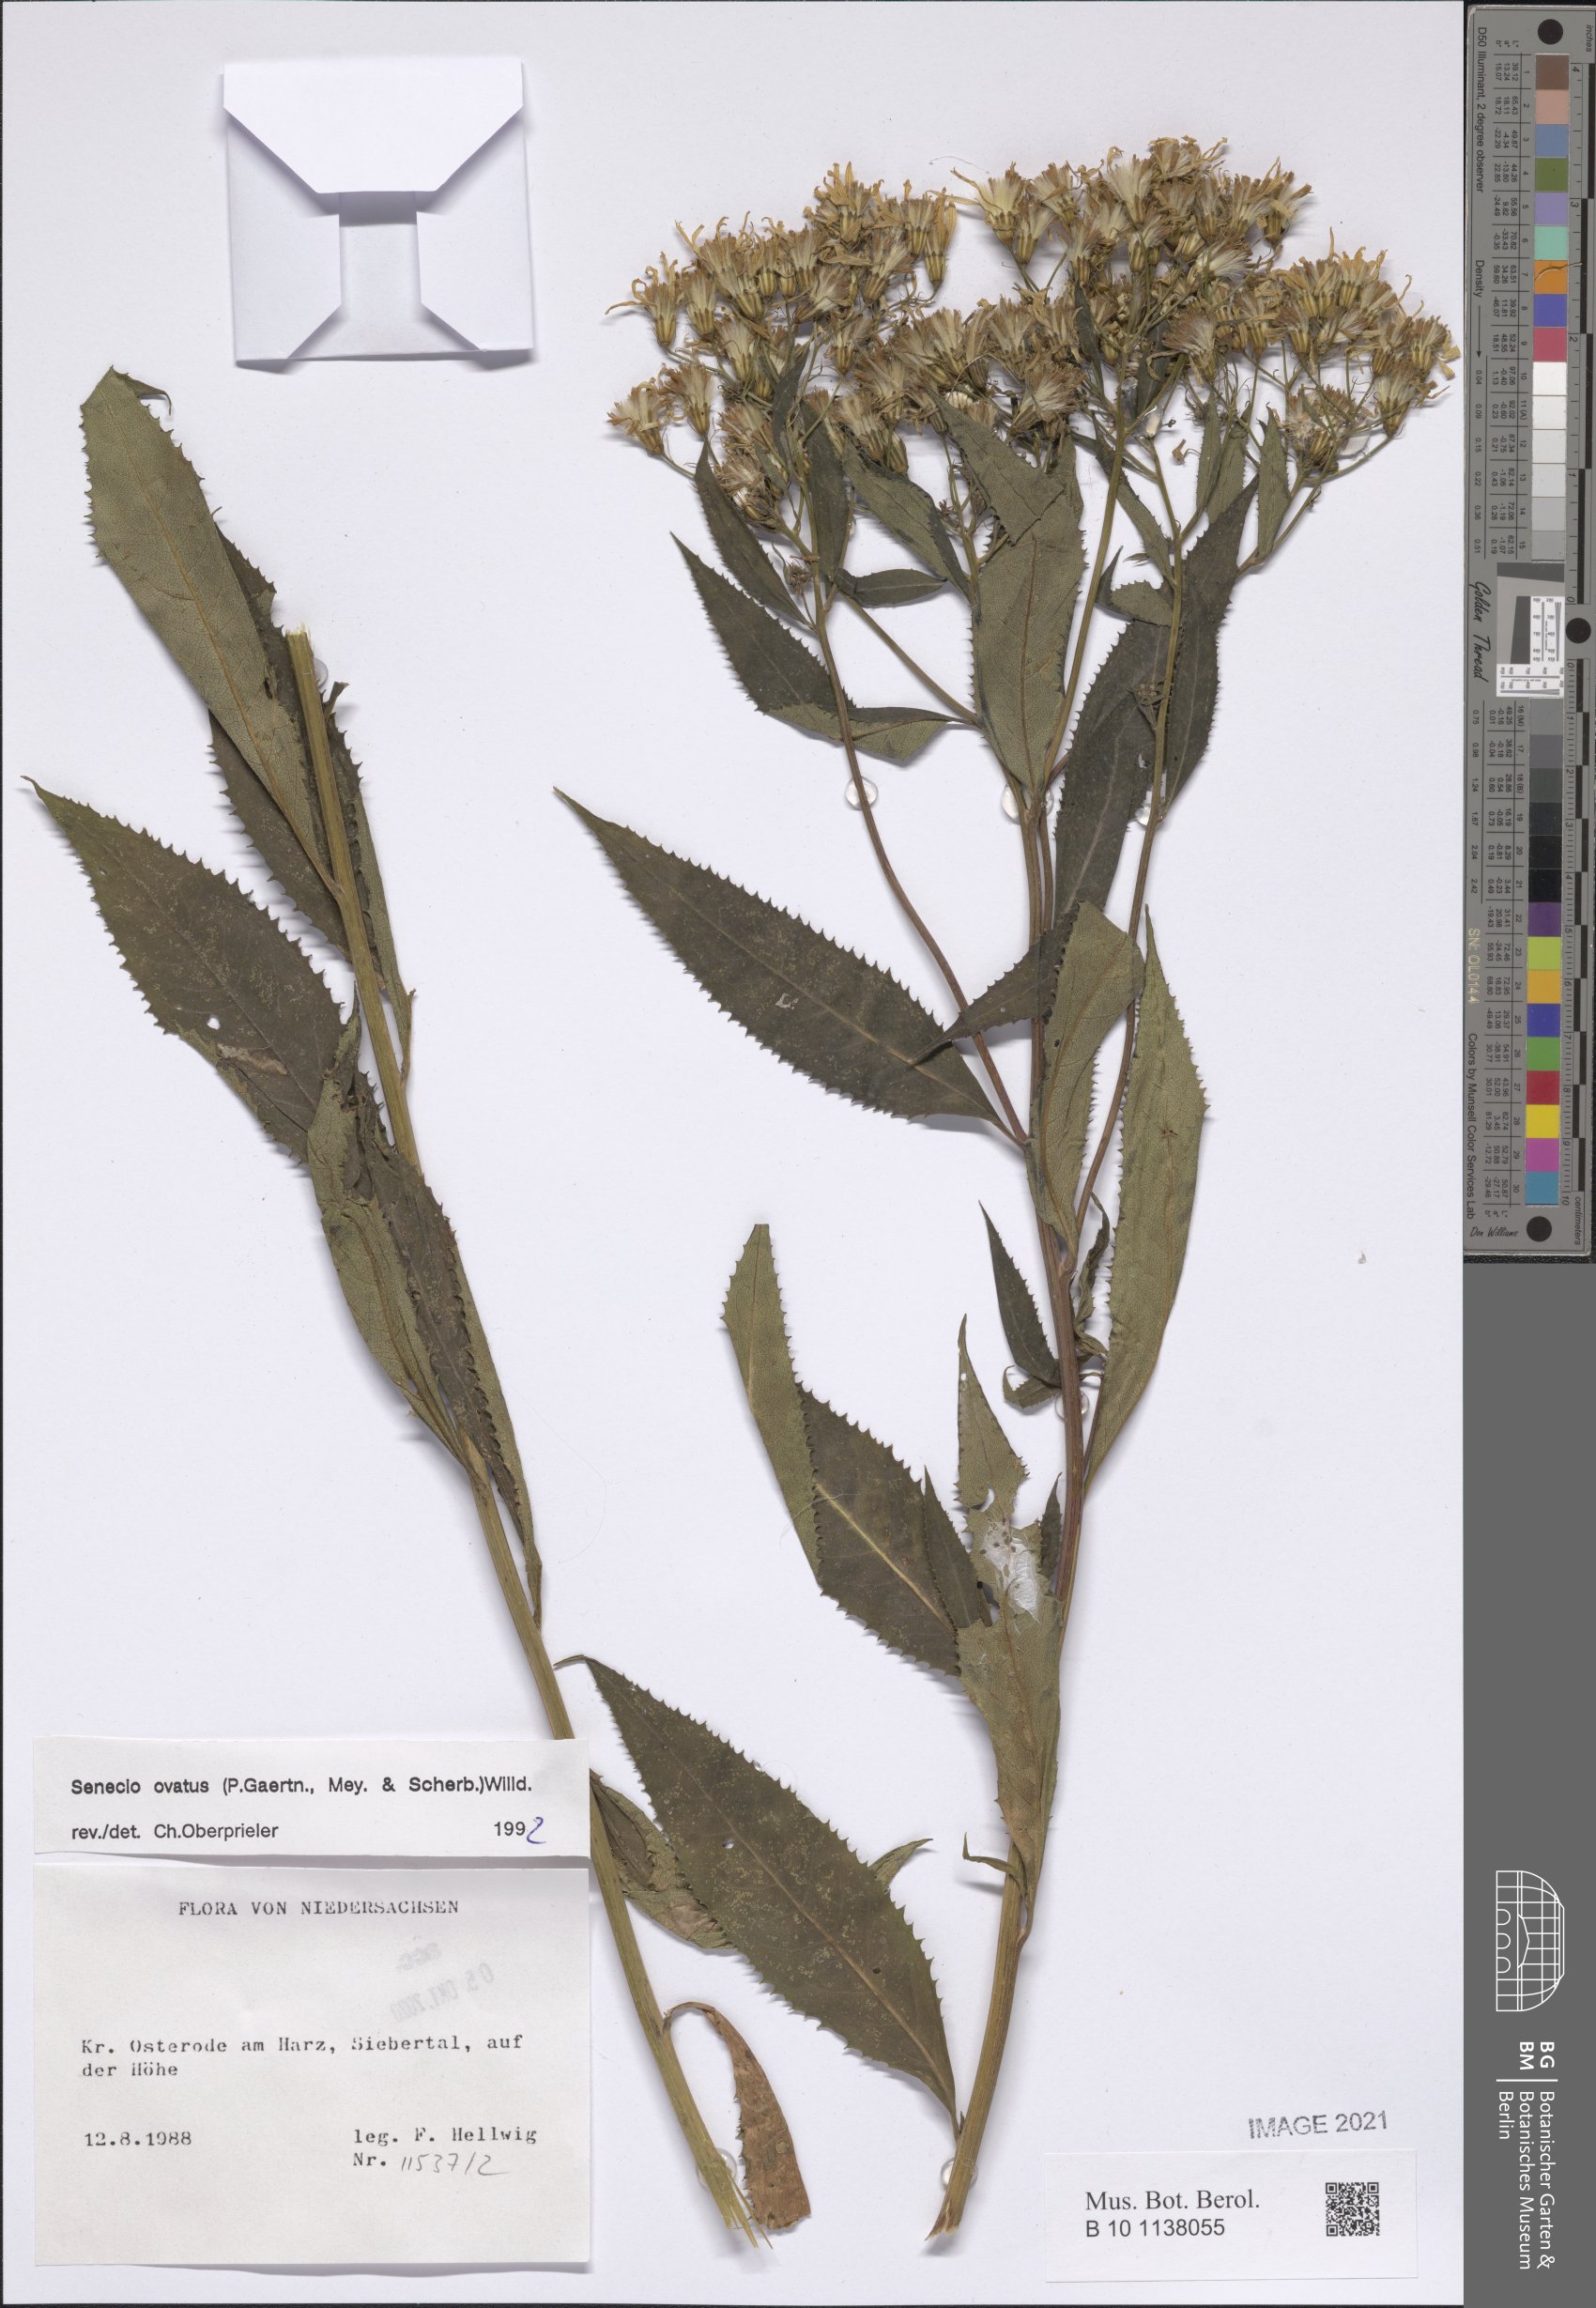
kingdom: Plantae
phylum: Tracheophyta
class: Magnoliopsida
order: Asterales
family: Asteraceae
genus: Senecio
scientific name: Senecio ovatus
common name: Wood ragwort
